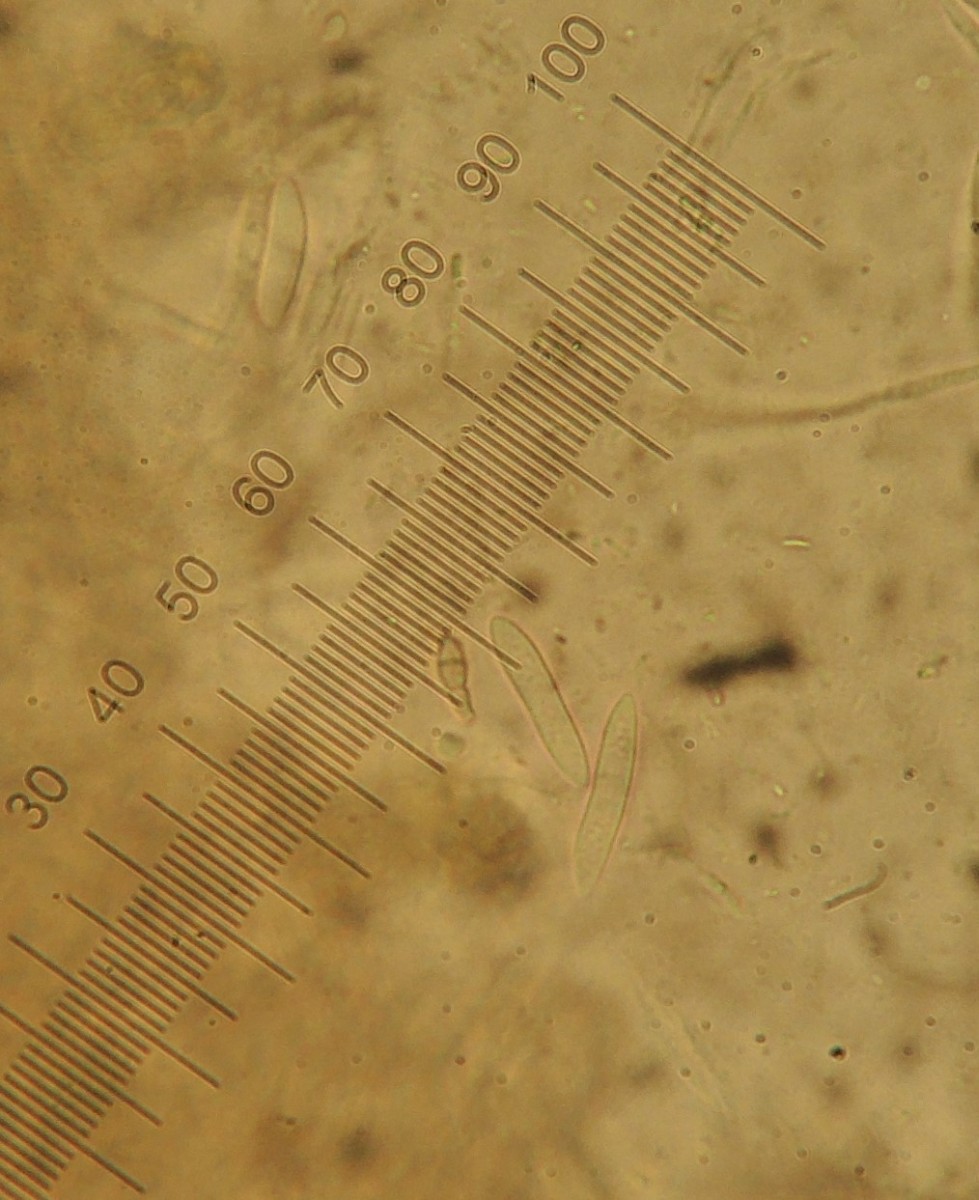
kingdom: Fungi
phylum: Ascomycota
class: Leotiomycetes
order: Helotiales
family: Cenangiaceae
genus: Crumenulopsis
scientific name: Crumenulopsis sororia
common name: sorthåret filtskive
